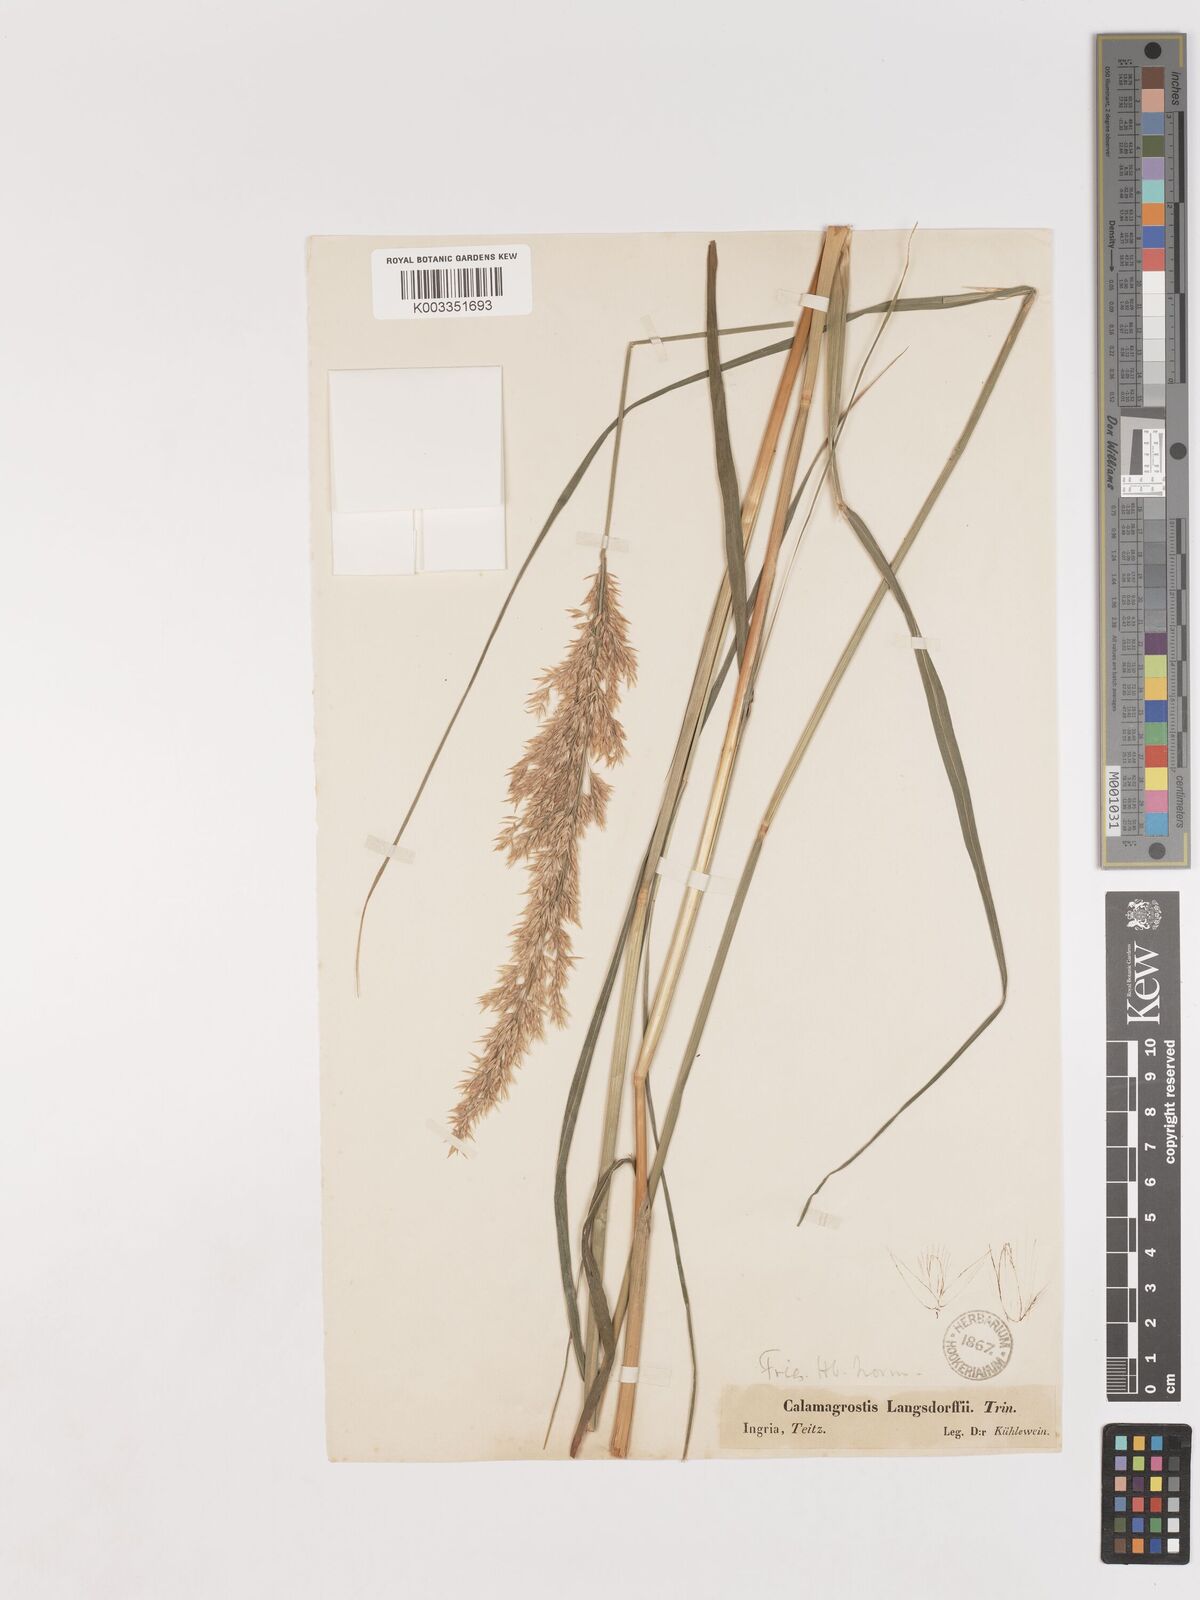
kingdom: Plantae
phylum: Tracheophyta
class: Liliopsida
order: Poales
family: Poaceae
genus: Calamagrostis
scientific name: Calamagrostis purpurea
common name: Scandinavian small-reed
